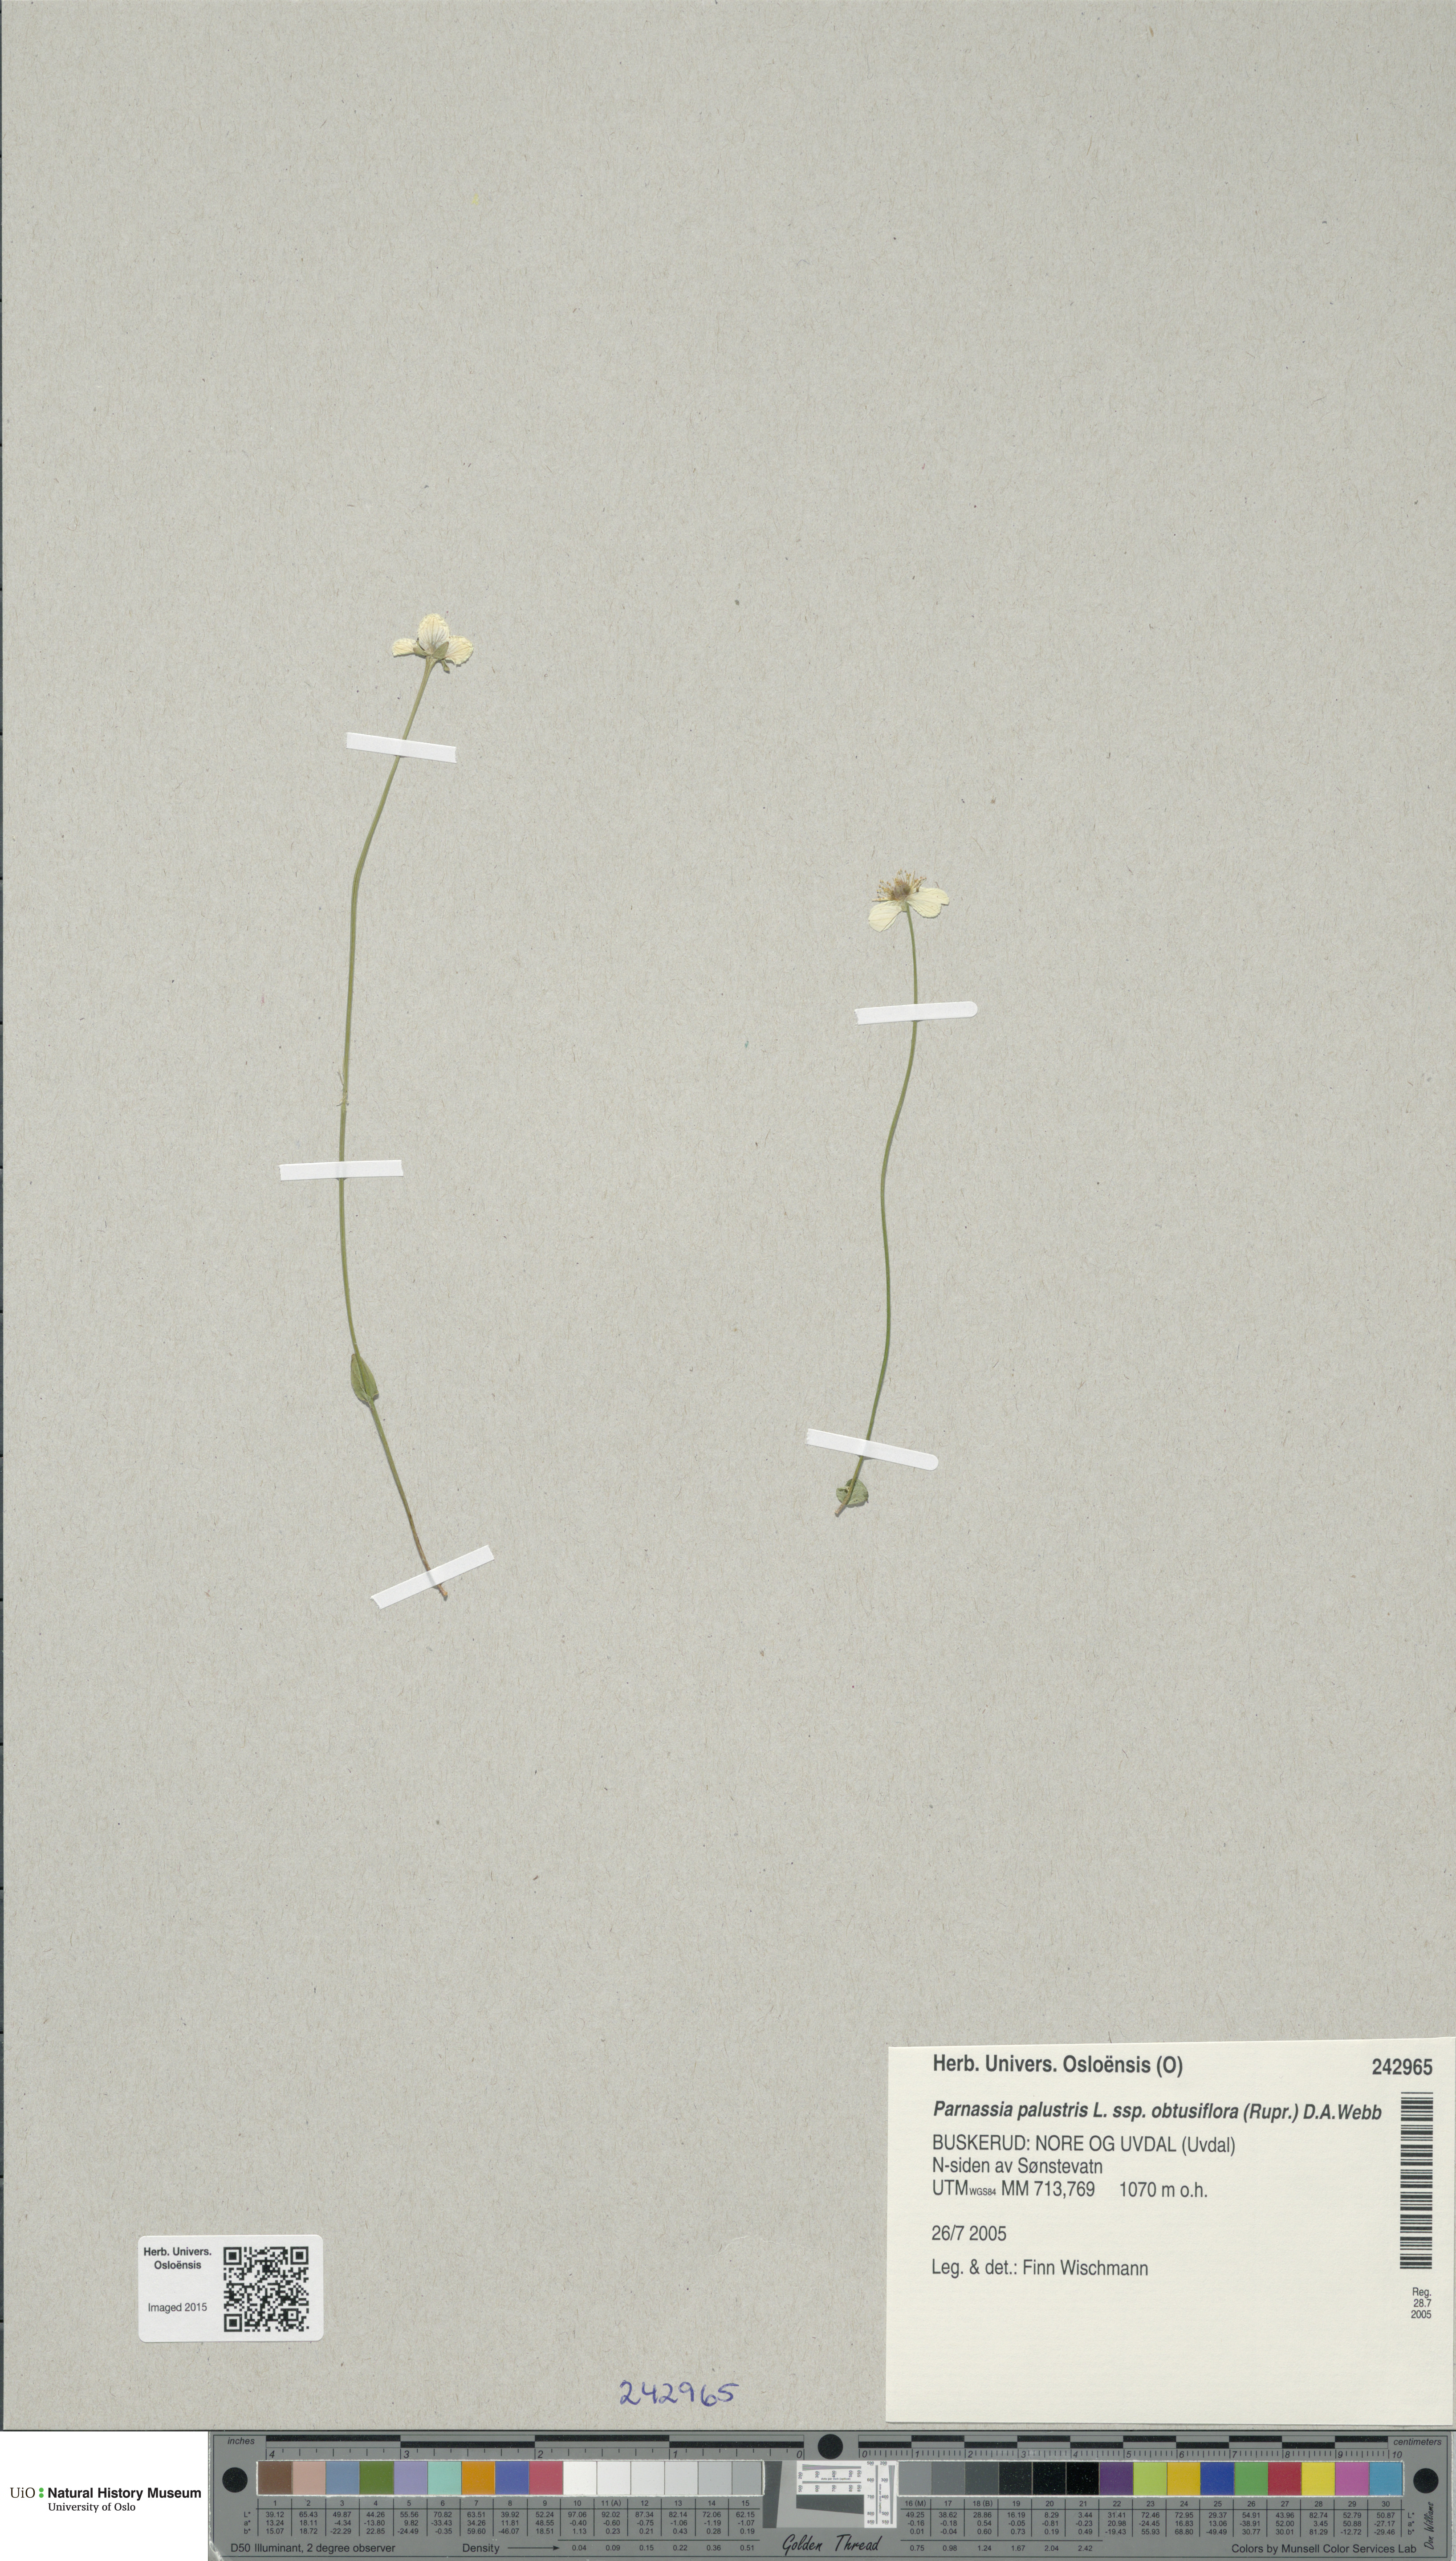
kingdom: Plantae
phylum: Tracheophyta
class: Magnoliopsida
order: Celastrales
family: Parnassiaceae
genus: Parnassia
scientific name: Parnassia palustris
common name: Grass-of-parnassus
